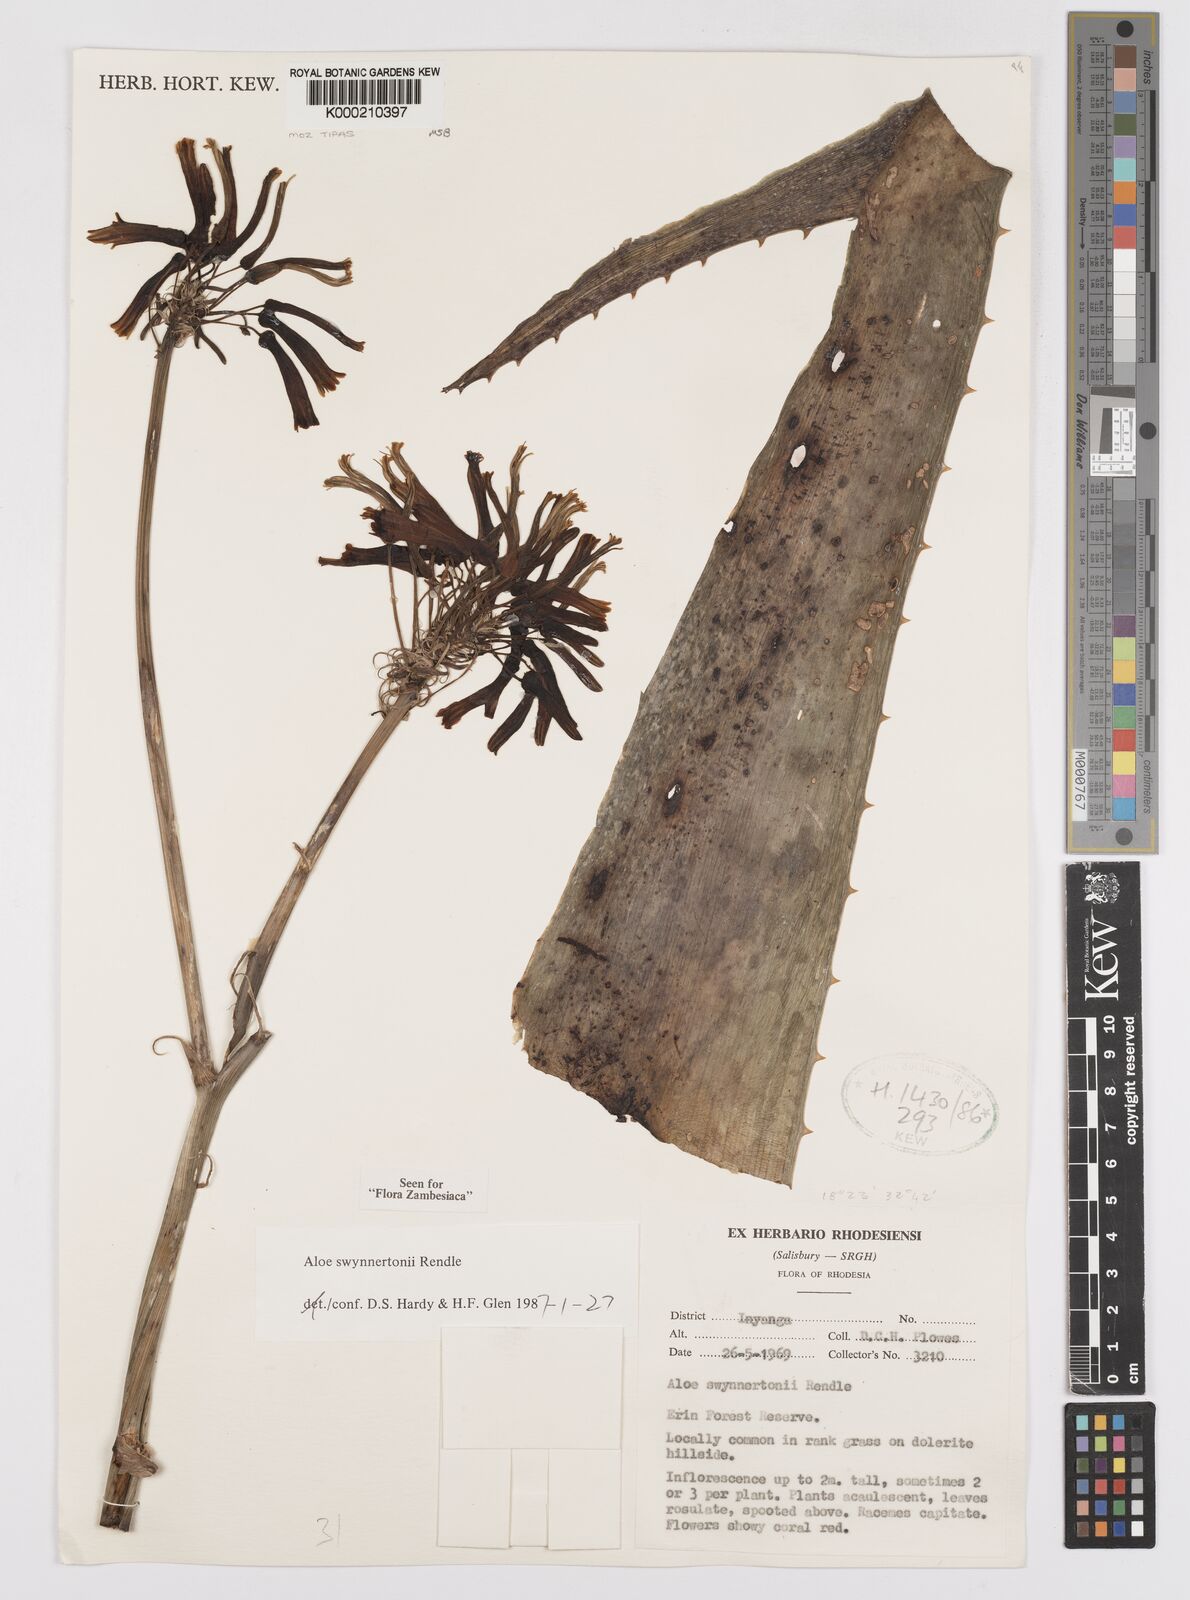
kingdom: Plantae
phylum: Tracheophyta
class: Liliopsida
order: Asparagales
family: Asphodelaceae
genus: Aloe
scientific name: Aloe swynnertonii
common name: Swynnerton's aloe
